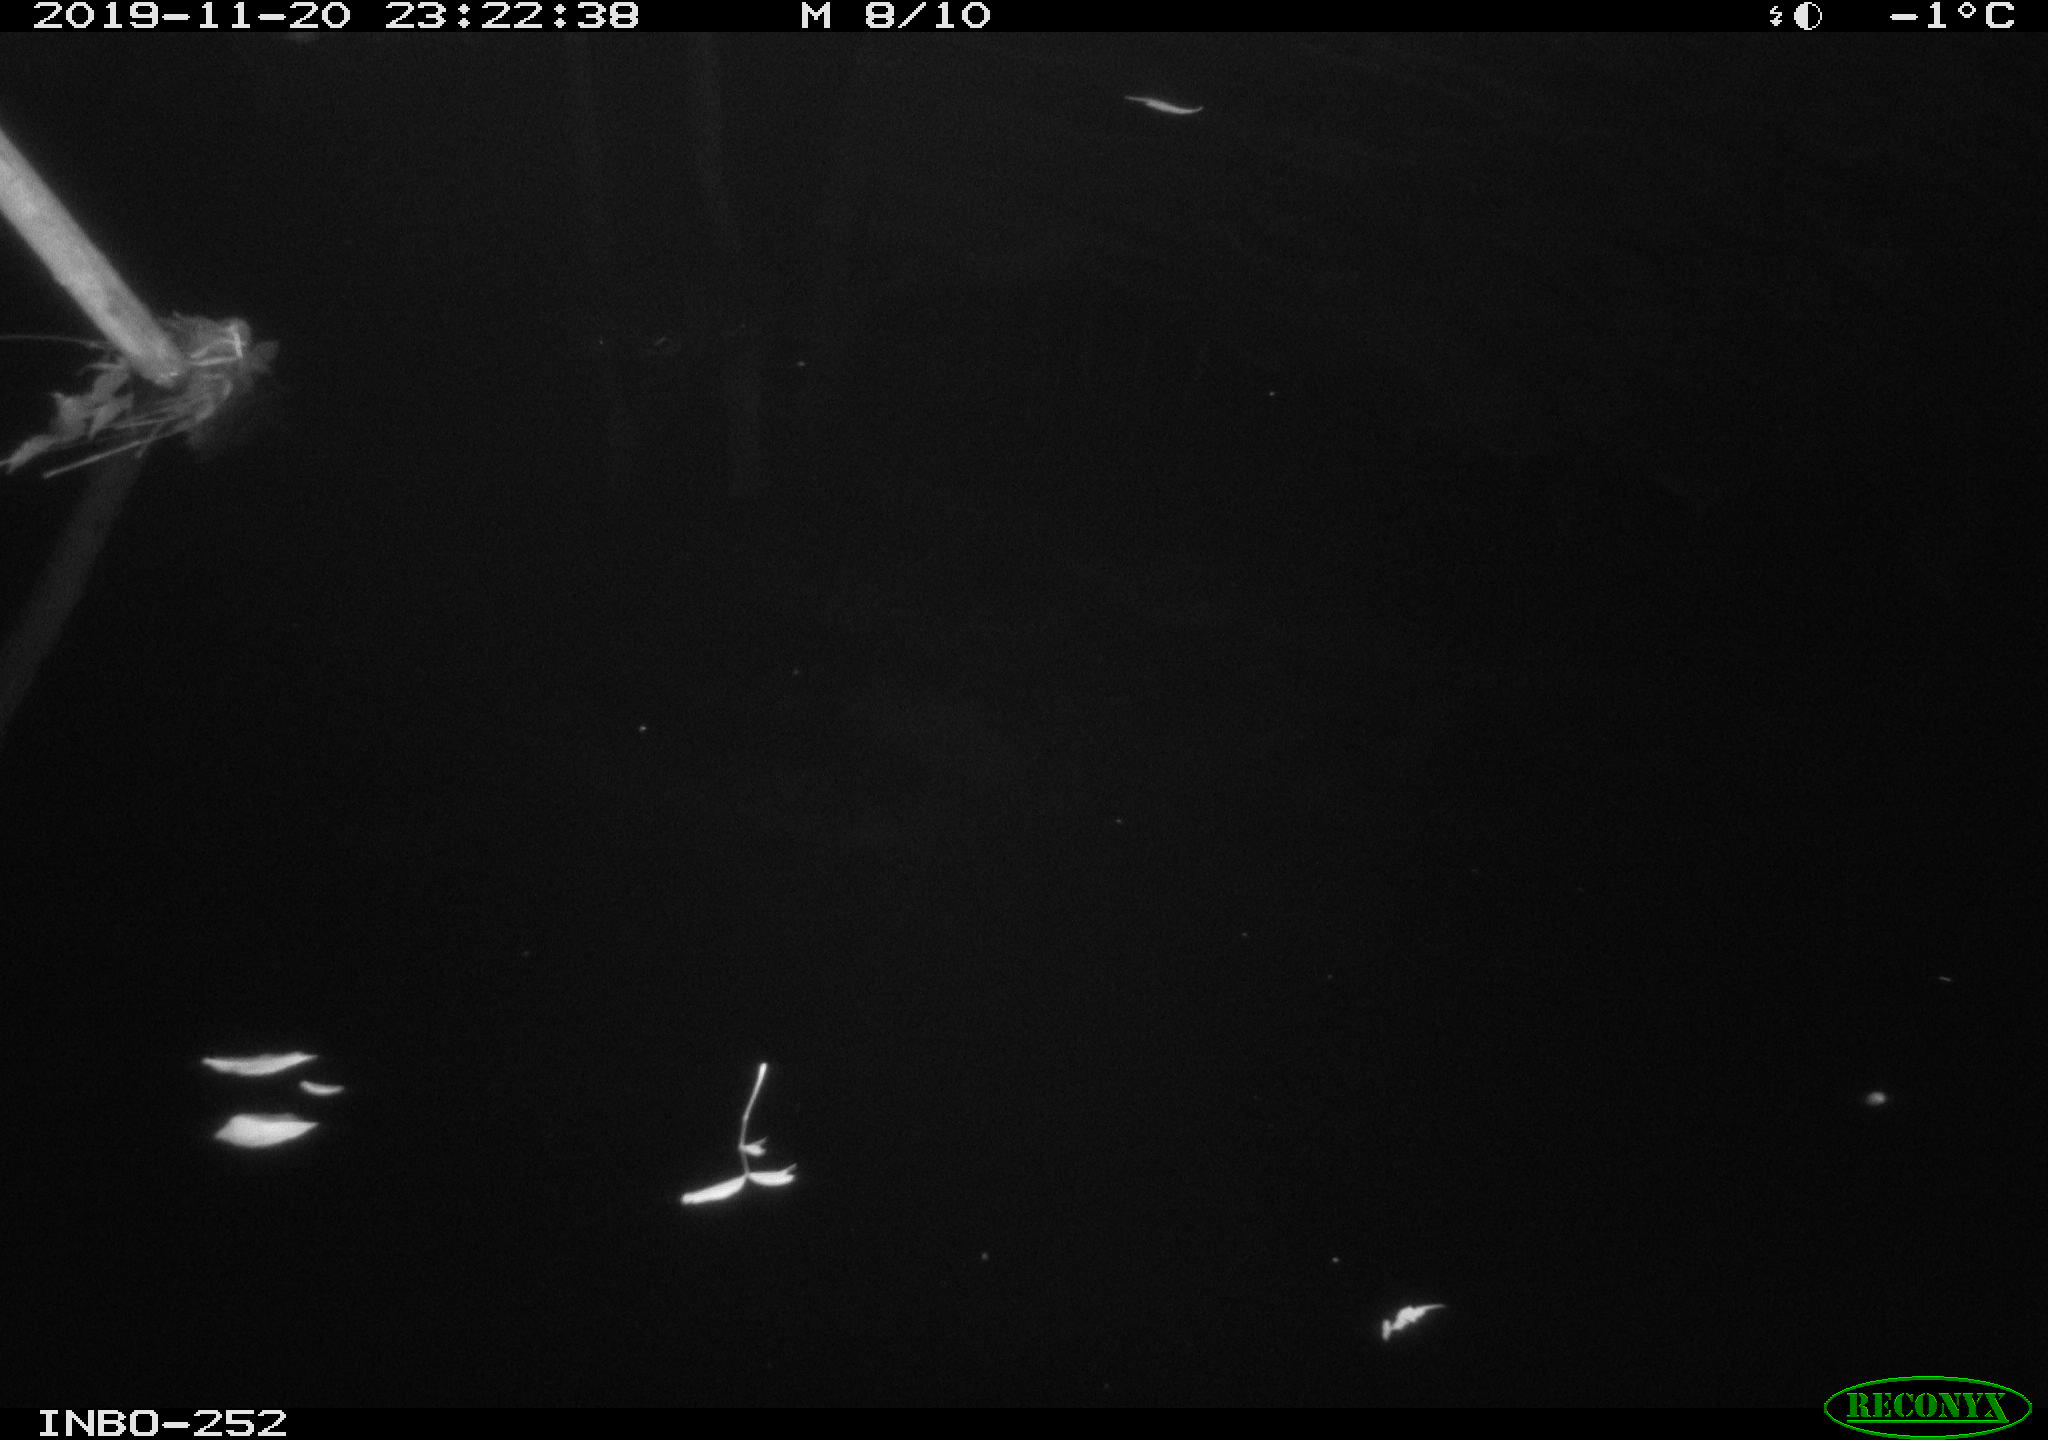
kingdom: Animalia
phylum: Chordata
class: Aves
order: Anseriformes
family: Anatidae
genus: Anas
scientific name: Anas platyrhynchos
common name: Mallard
